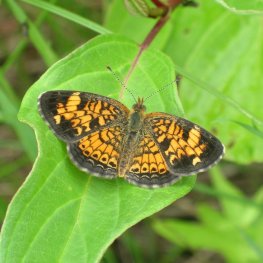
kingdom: Animalia
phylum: Arthropoda
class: Insecta
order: Lepidoptera
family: Nymphalidae
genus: Phyciodes
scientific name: Phyciodes tharos
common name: Pearl Crescent
